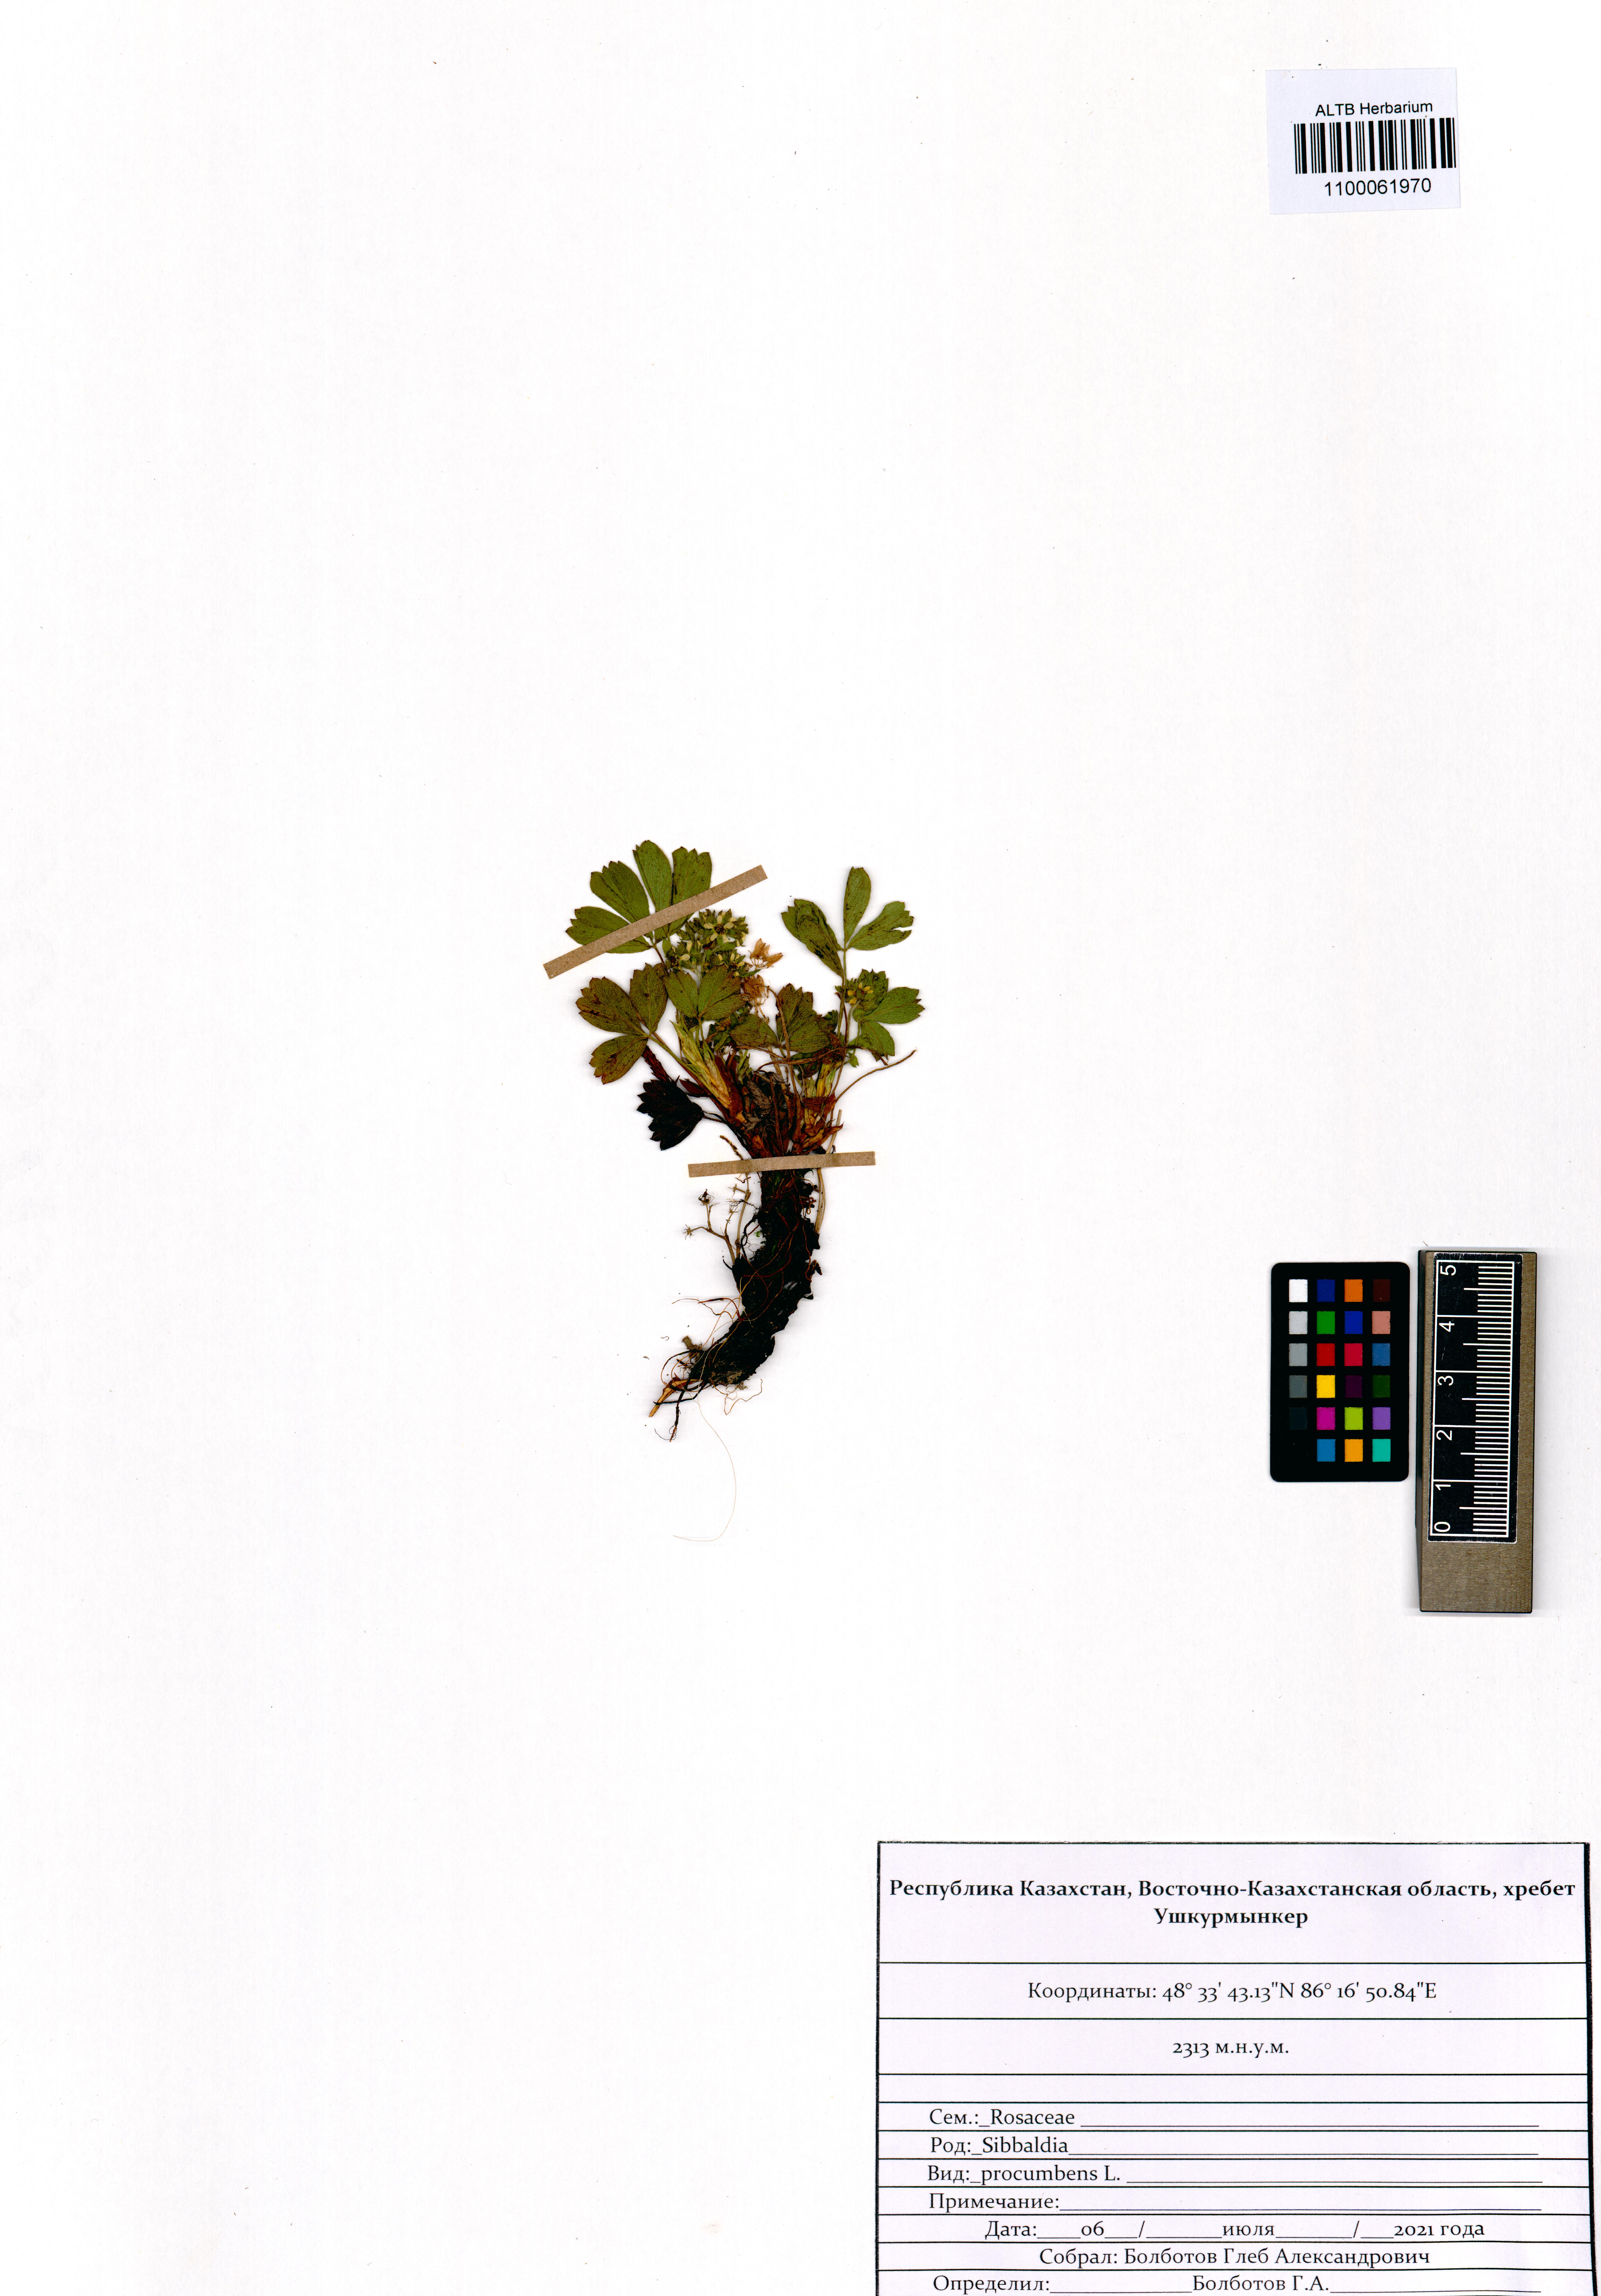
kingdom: Plantae
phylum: Tracheophyta
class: Magnoliopsida
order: Rosales
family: Rosaceae
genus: Sibbaldia
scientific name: Sibbaldia procumbens
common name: Creeping sibbaldia
